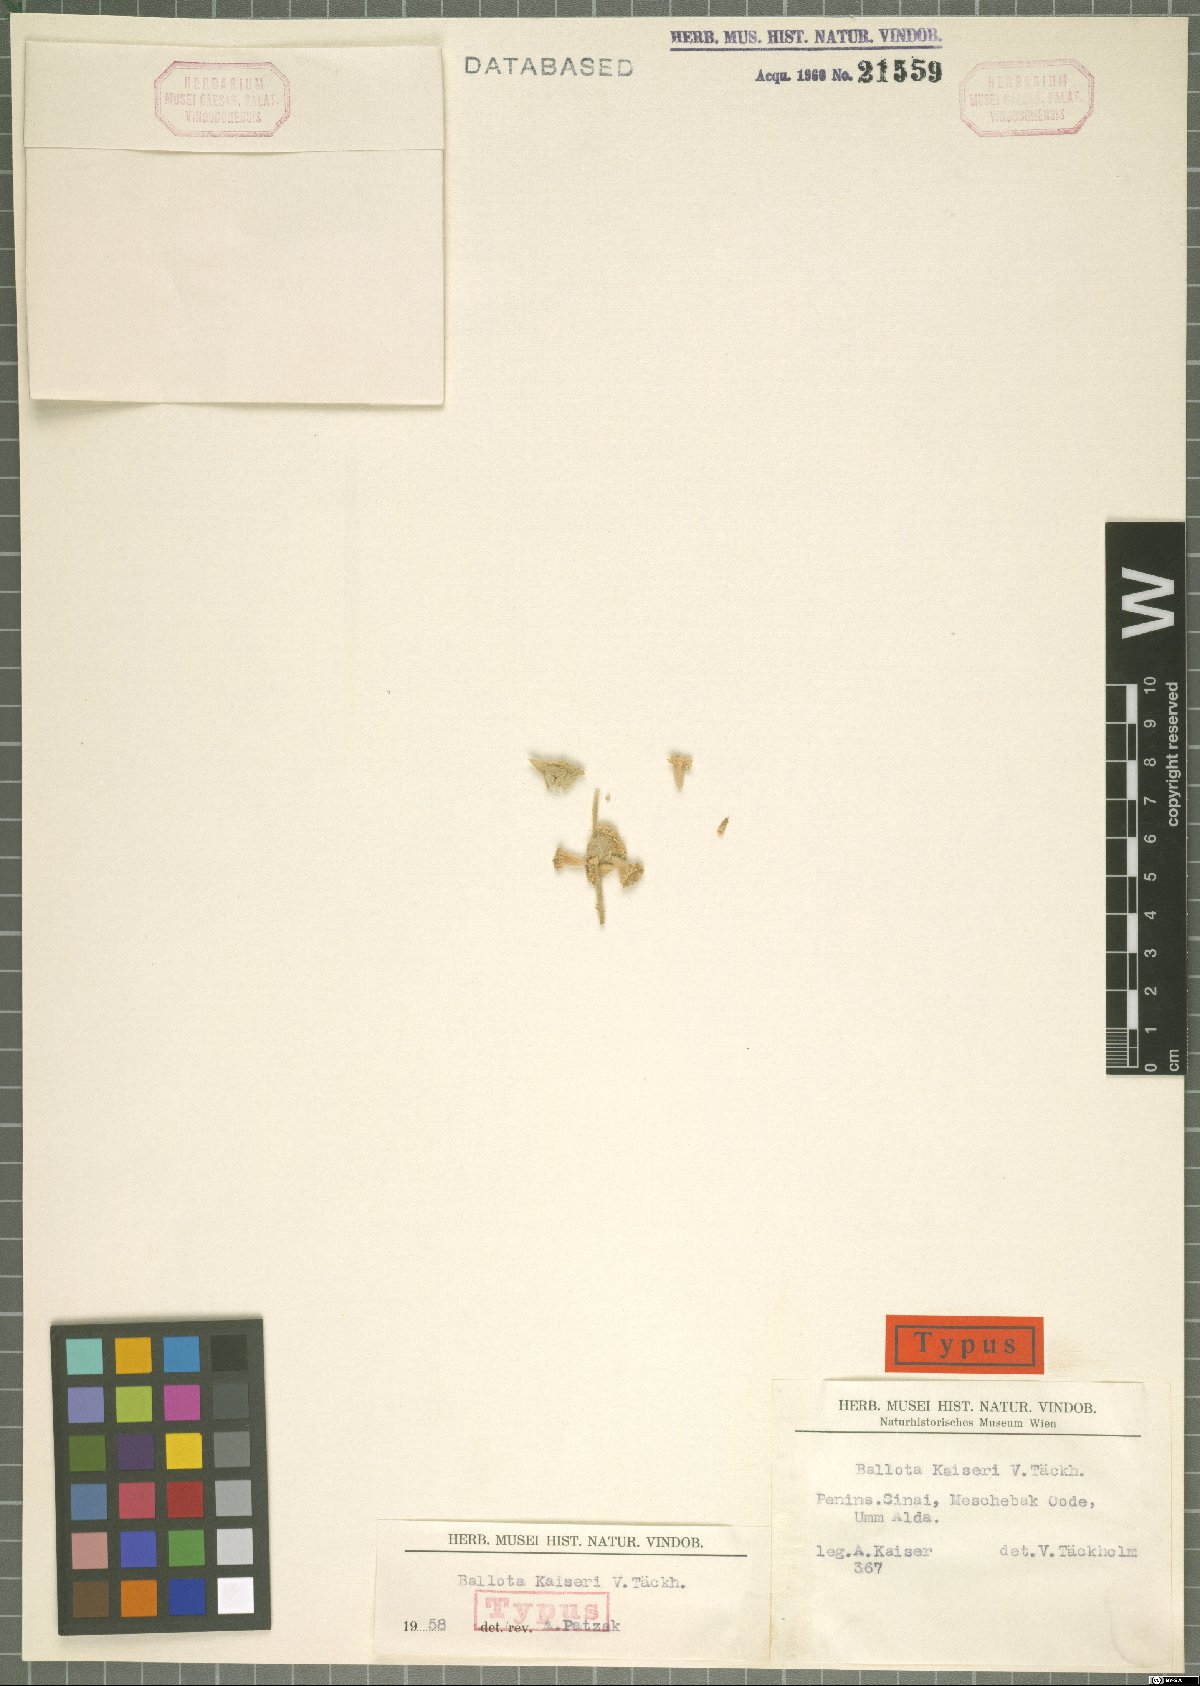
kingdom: Plantae
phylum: Tracheophyta
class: Magnoliopsida
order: Lamiales
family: Lamiaceae
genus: Ballota
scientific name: Ballota kaiseri
